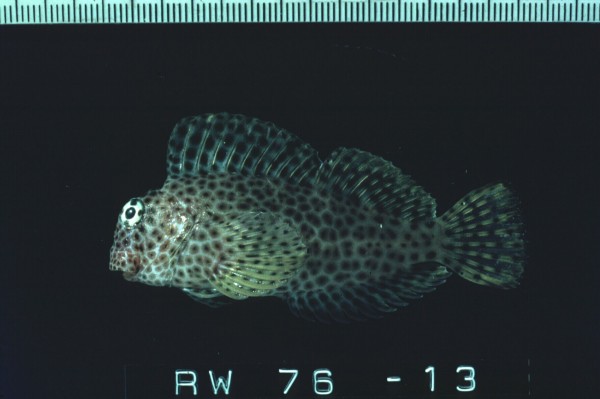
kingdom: Animalia
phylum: Chordata
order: Perciformes
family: Blenniidae
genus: Exallias
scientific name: Exallias brevis
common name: Leopard blenny
